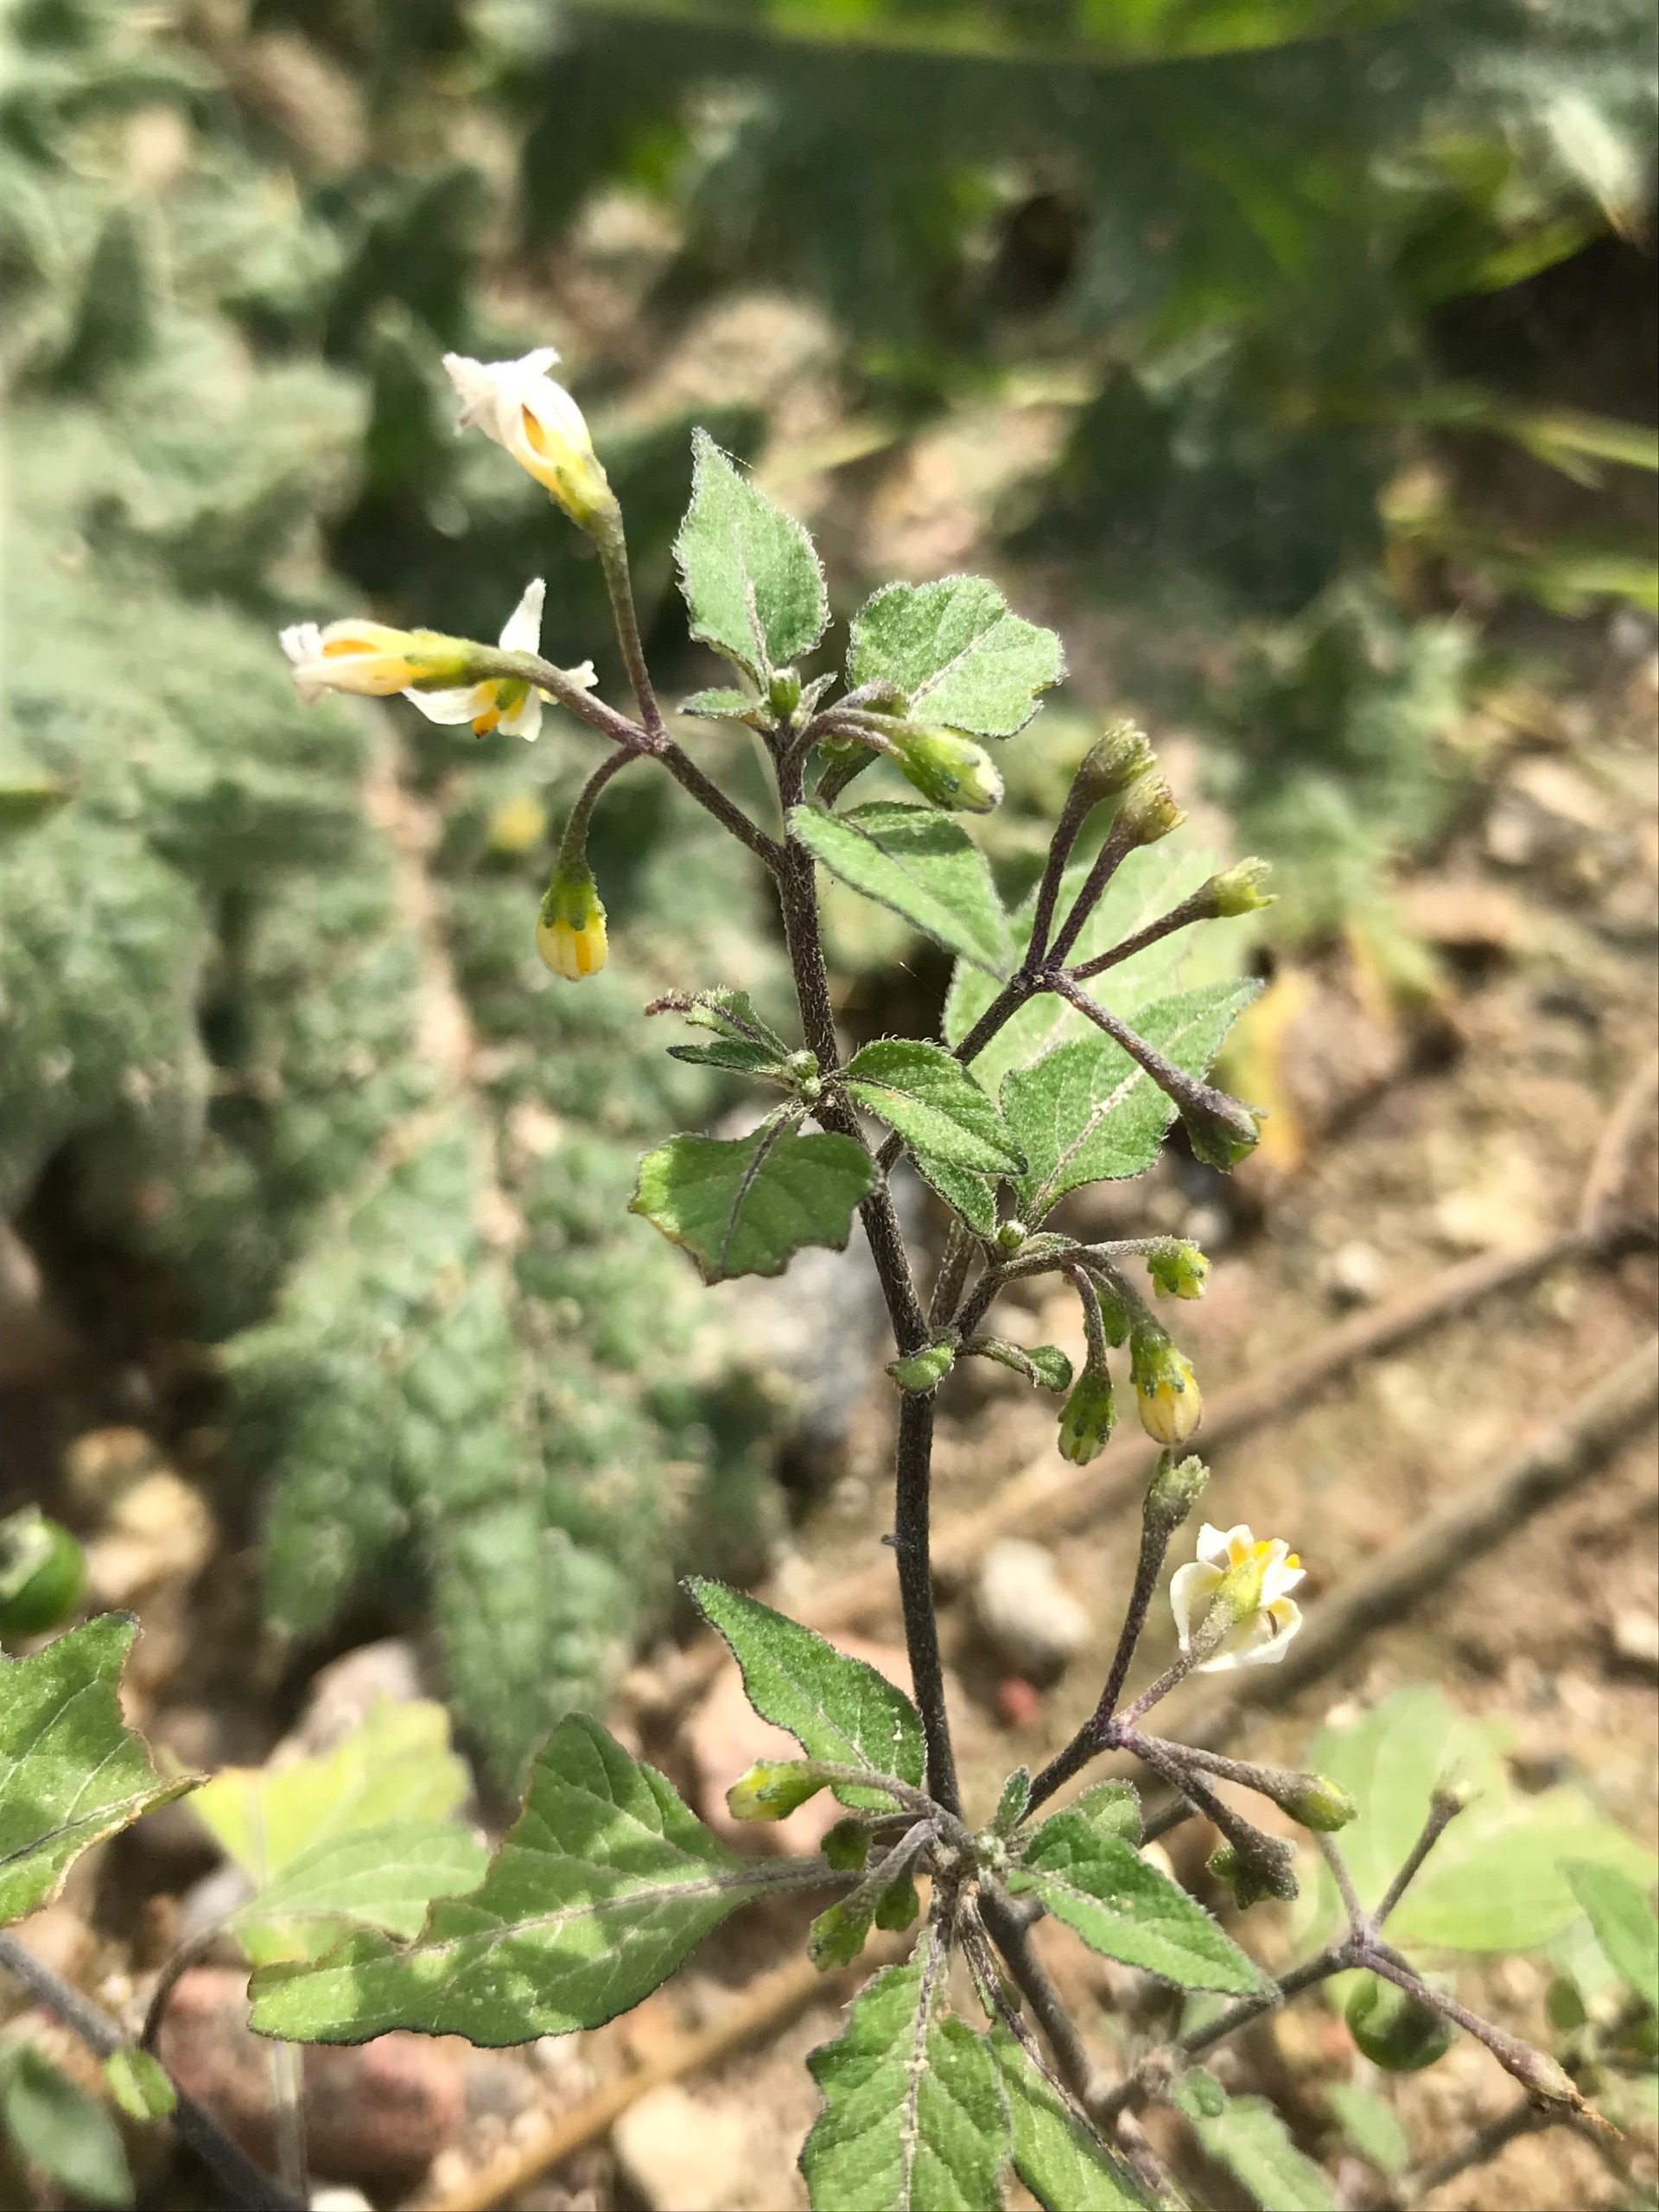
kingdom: Plantae
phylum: Tracheophyta
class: Magnoliopsida
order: Solanales
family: Solanaceae
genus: Solanum
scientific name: Solanum nigrum
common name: Sort natskygge
